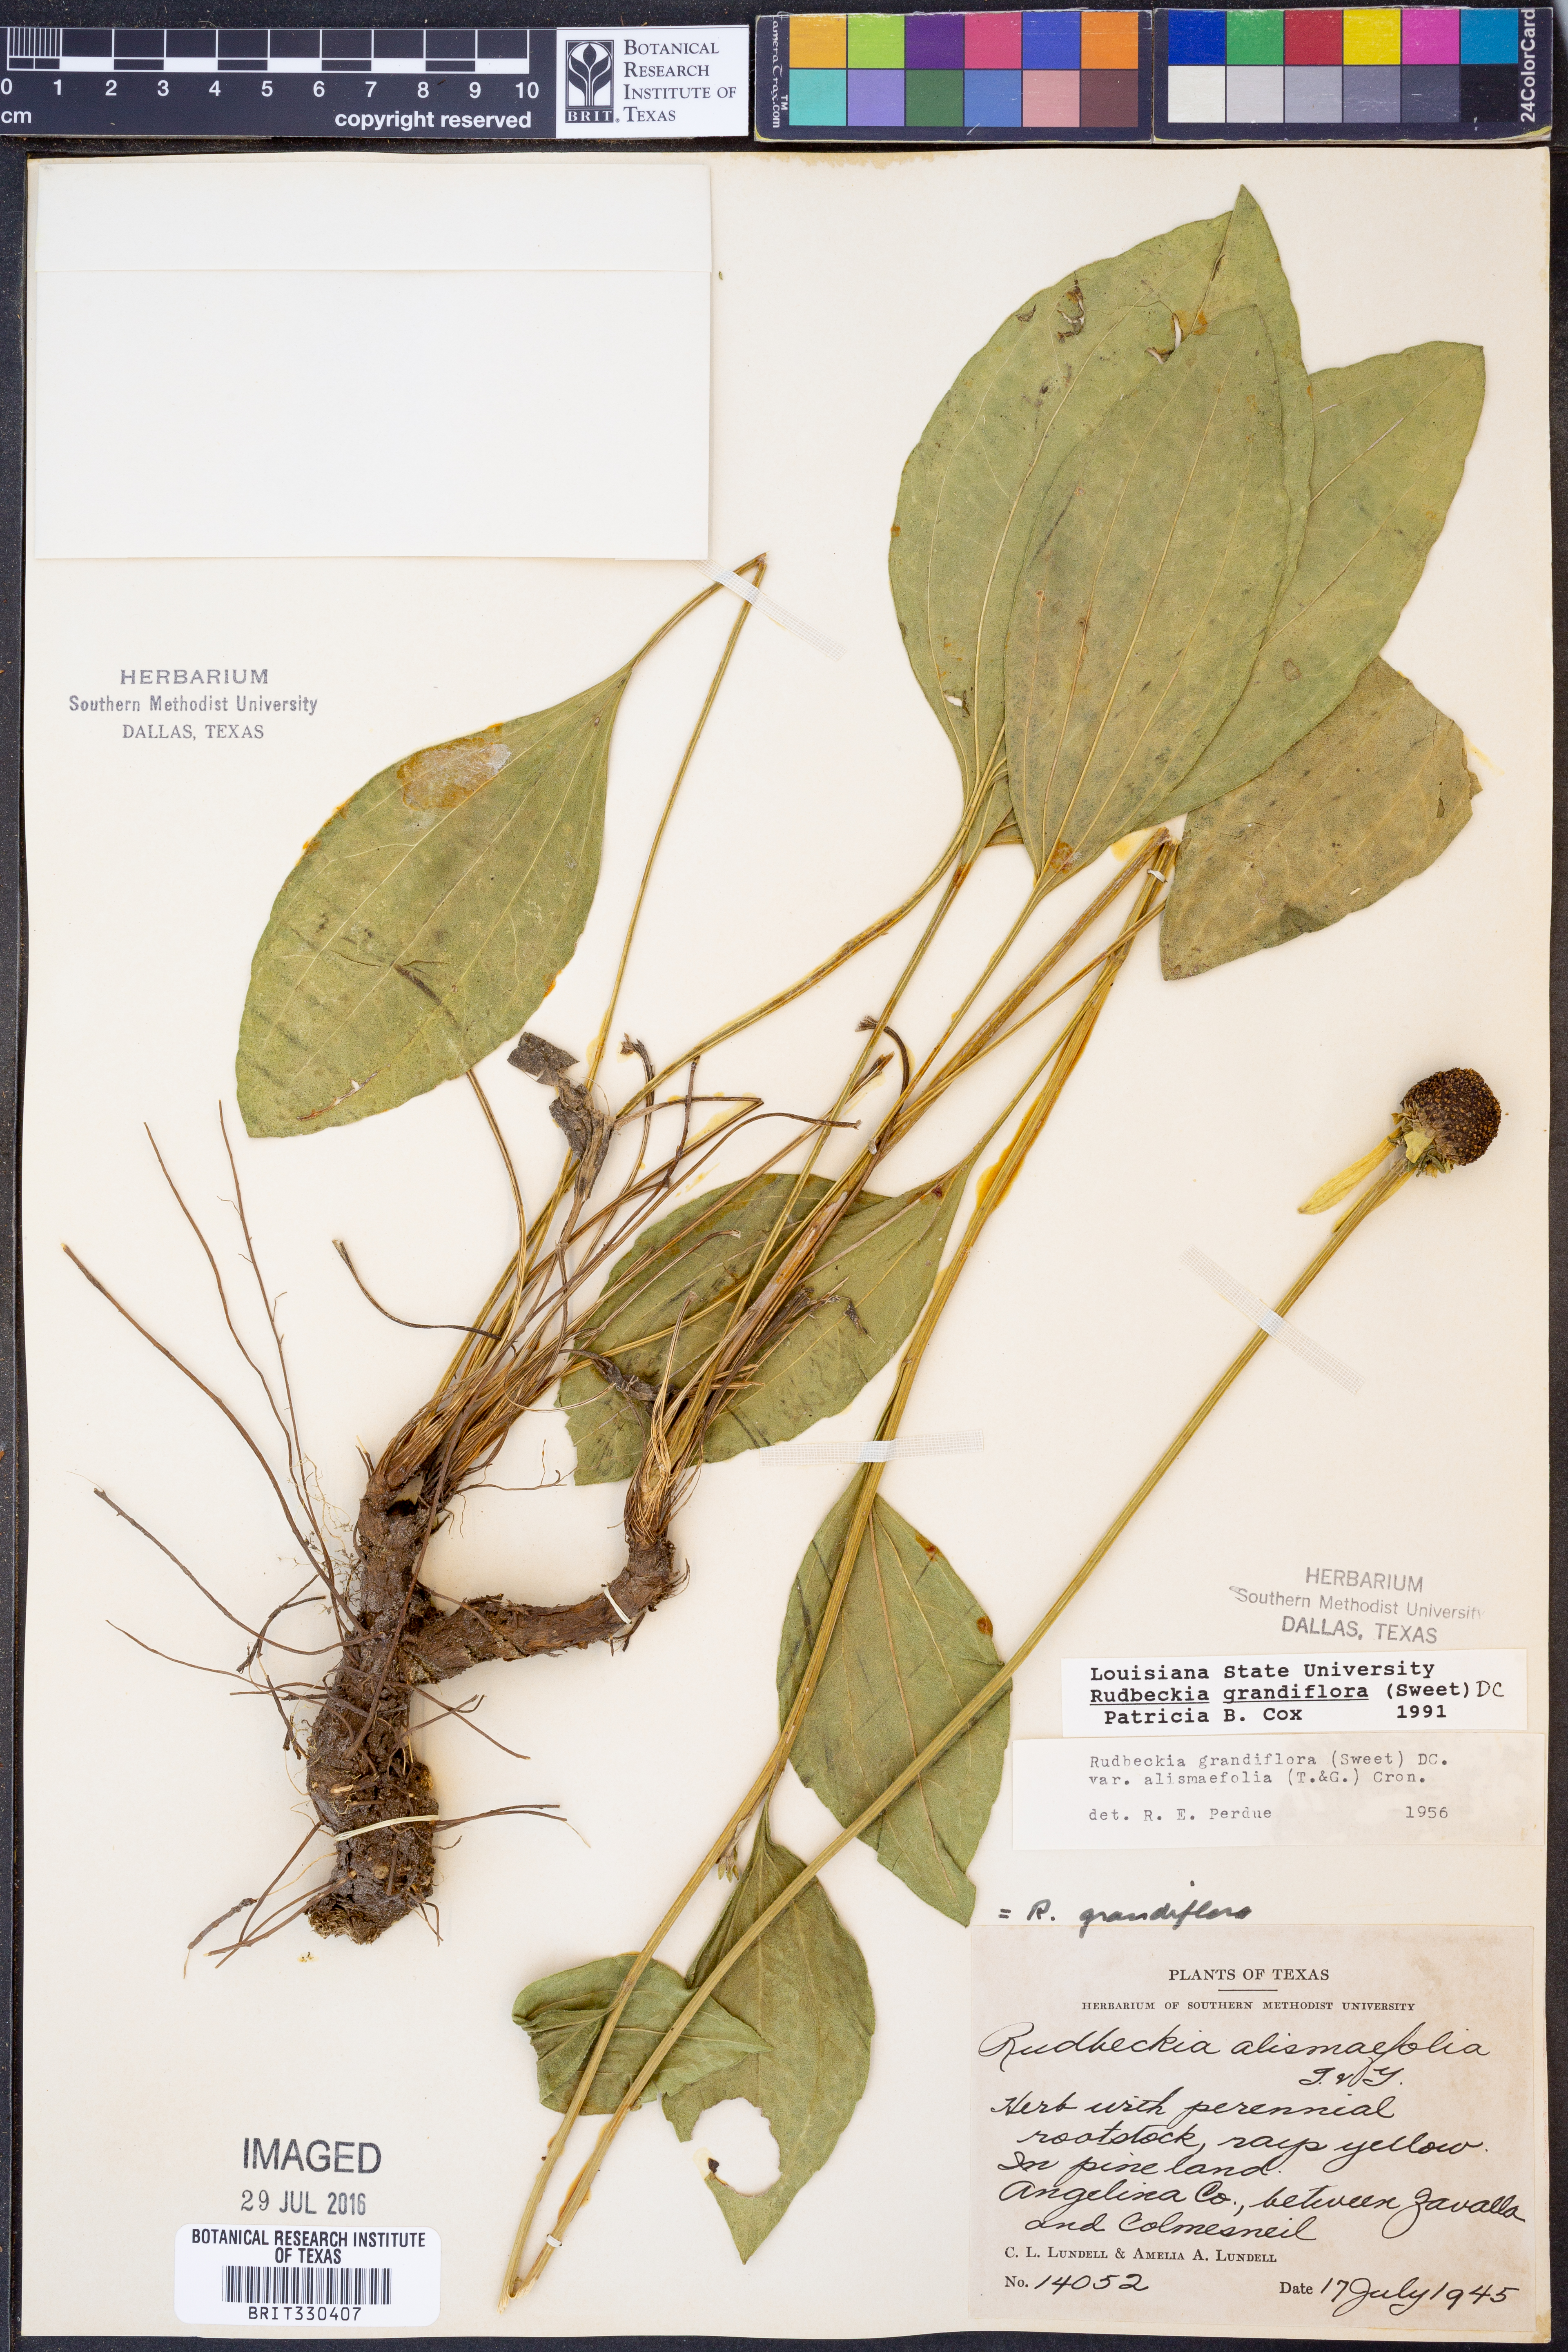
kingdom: Plantae
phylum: Tracheophyta
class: Magnoliopsida
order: Asterales
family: Asteraceae
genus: Rudbeckia
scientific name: Rudbeckia grandiflora
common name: Large-flowered coneflower
